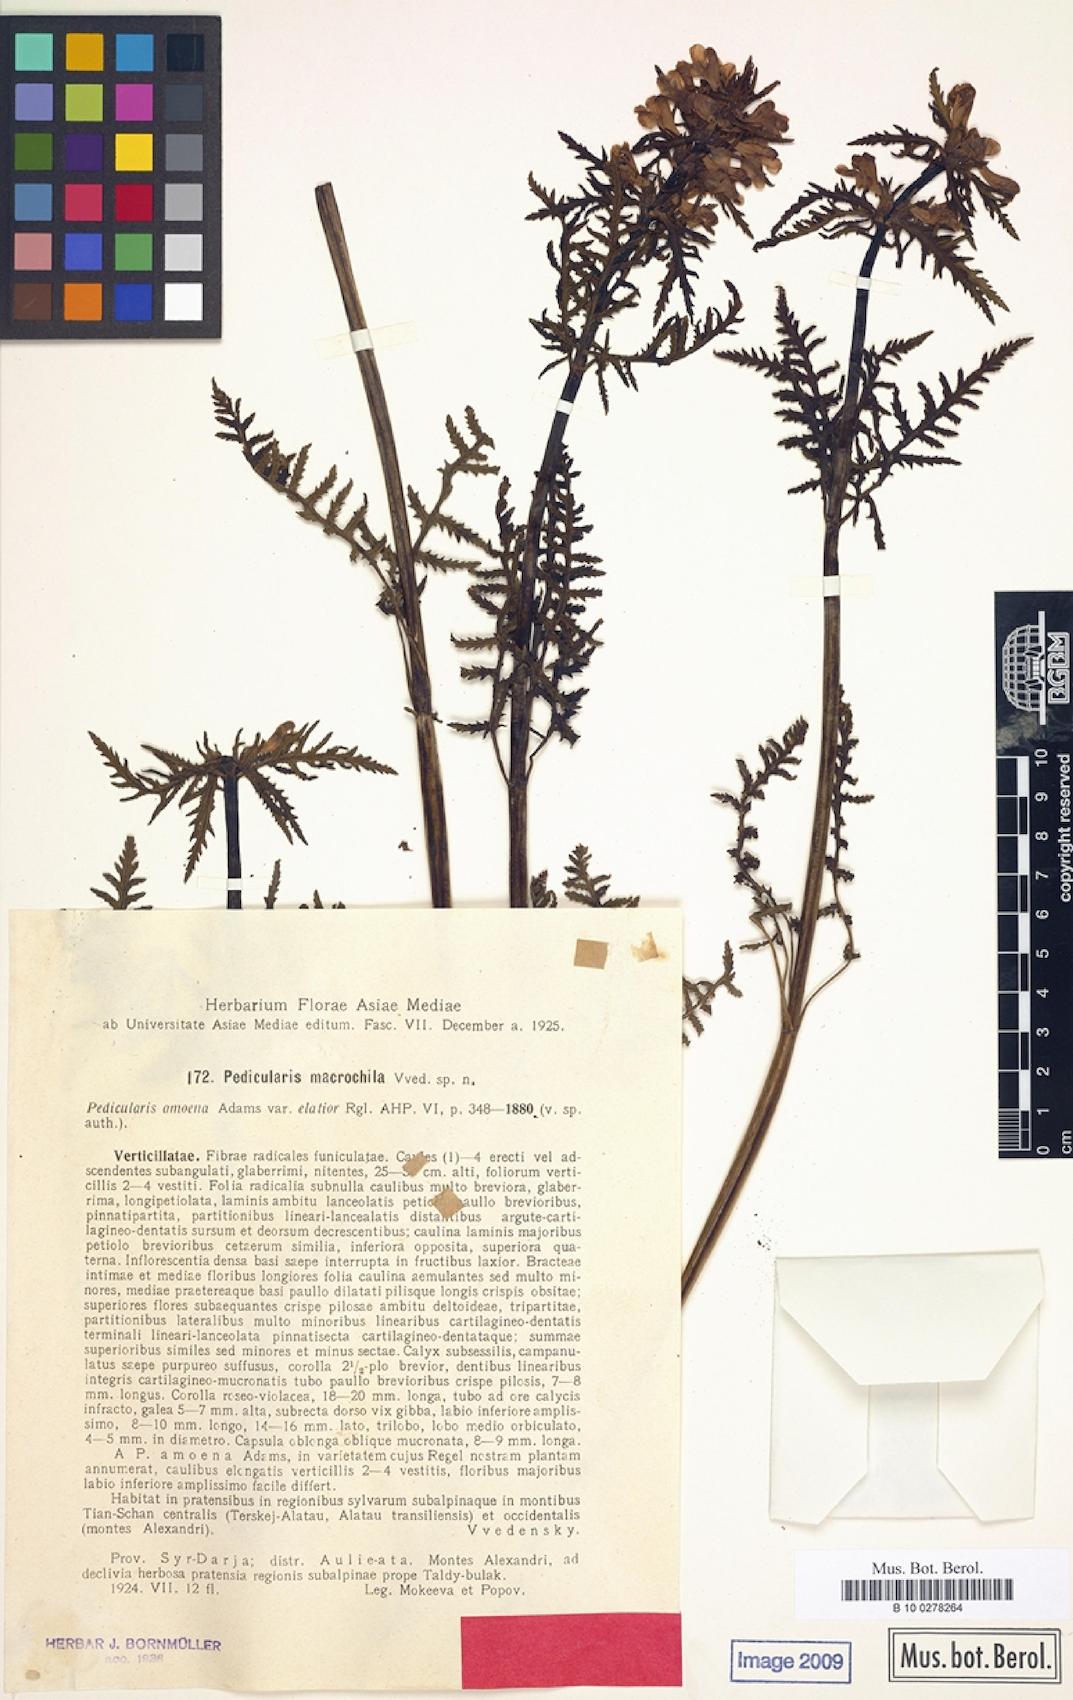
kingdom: Plantae
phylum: Tracheophyta
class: Magnoliopsida
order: Lamiales
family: Orobanchaceae
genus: Pedicularis
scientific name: Pedicularis macrochila
